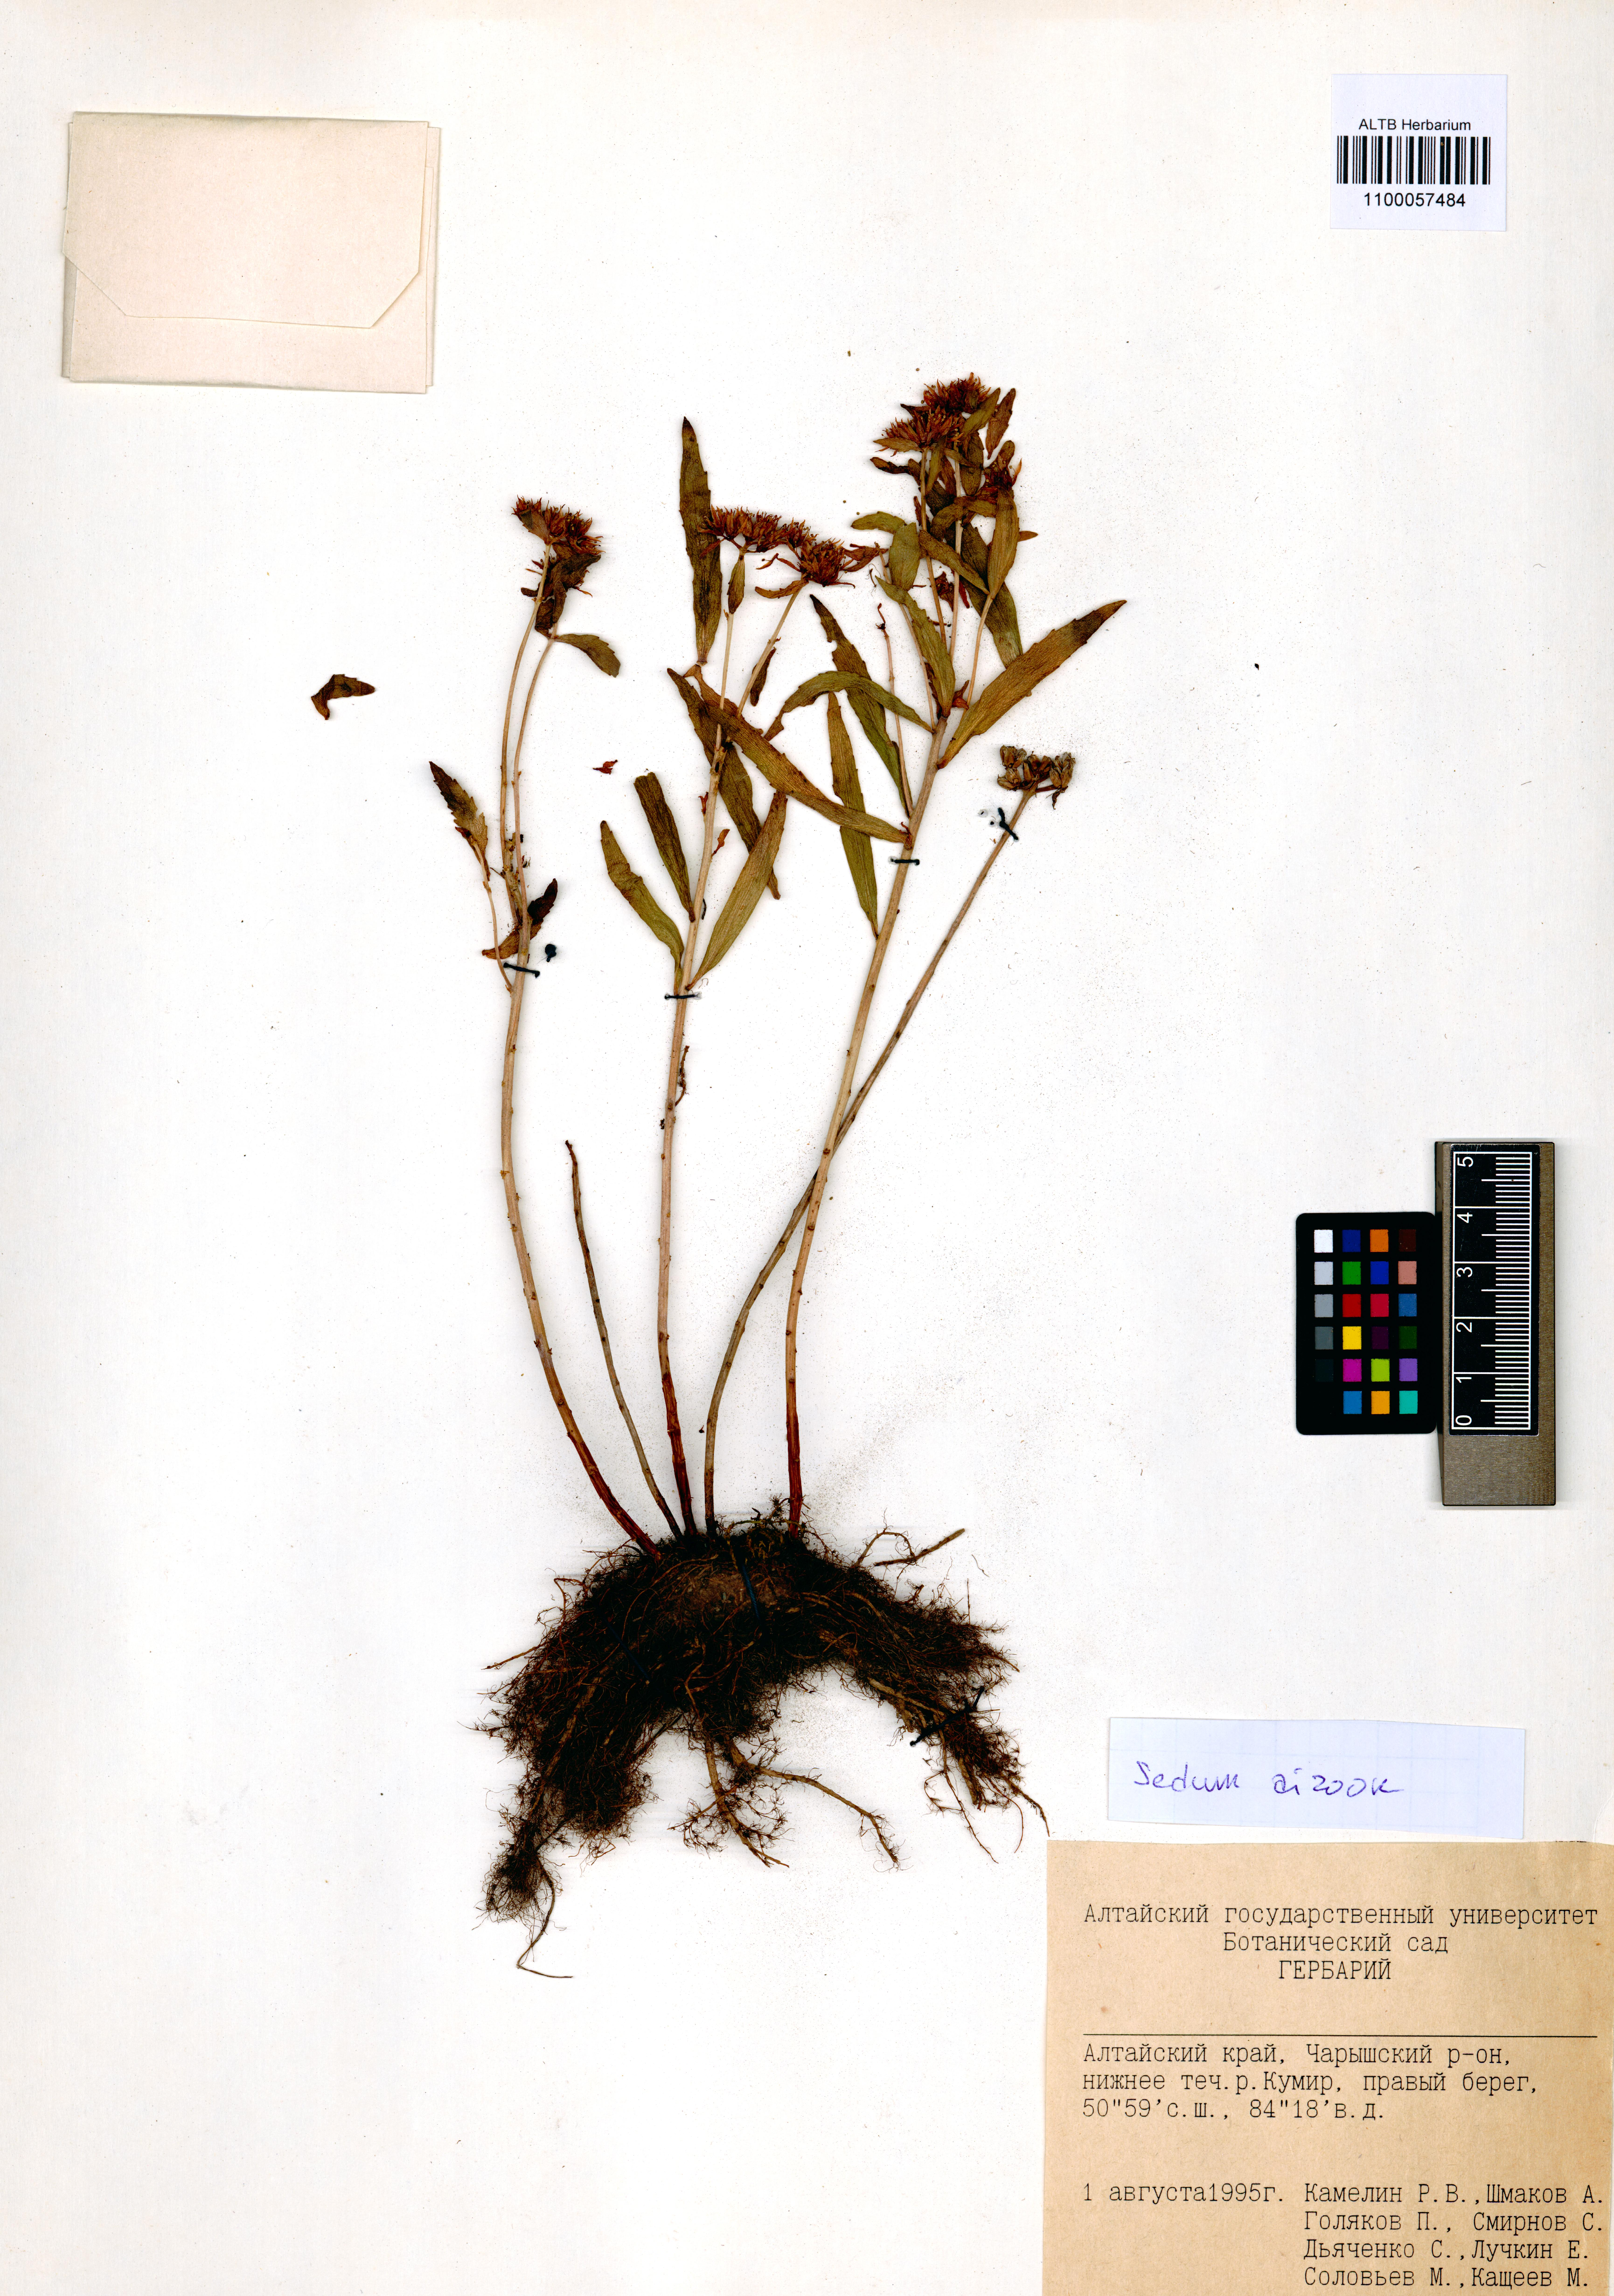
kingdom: Plantae
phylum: Tracheophyta
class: Magnoliopsida
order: Saxifragales
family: Crassulaceae
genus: Phedimus
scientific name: Phedimus aizoon
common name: Orpin aizoon
